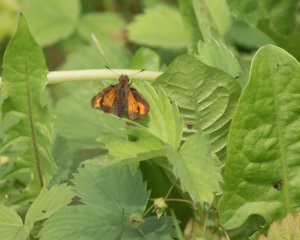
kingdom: Animalia
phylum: Arthropoda
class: Insecta
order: Lepidoptera
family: Hesperiidae
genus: Lon
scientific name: Lon hobomok
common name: Hobomok Skipper
